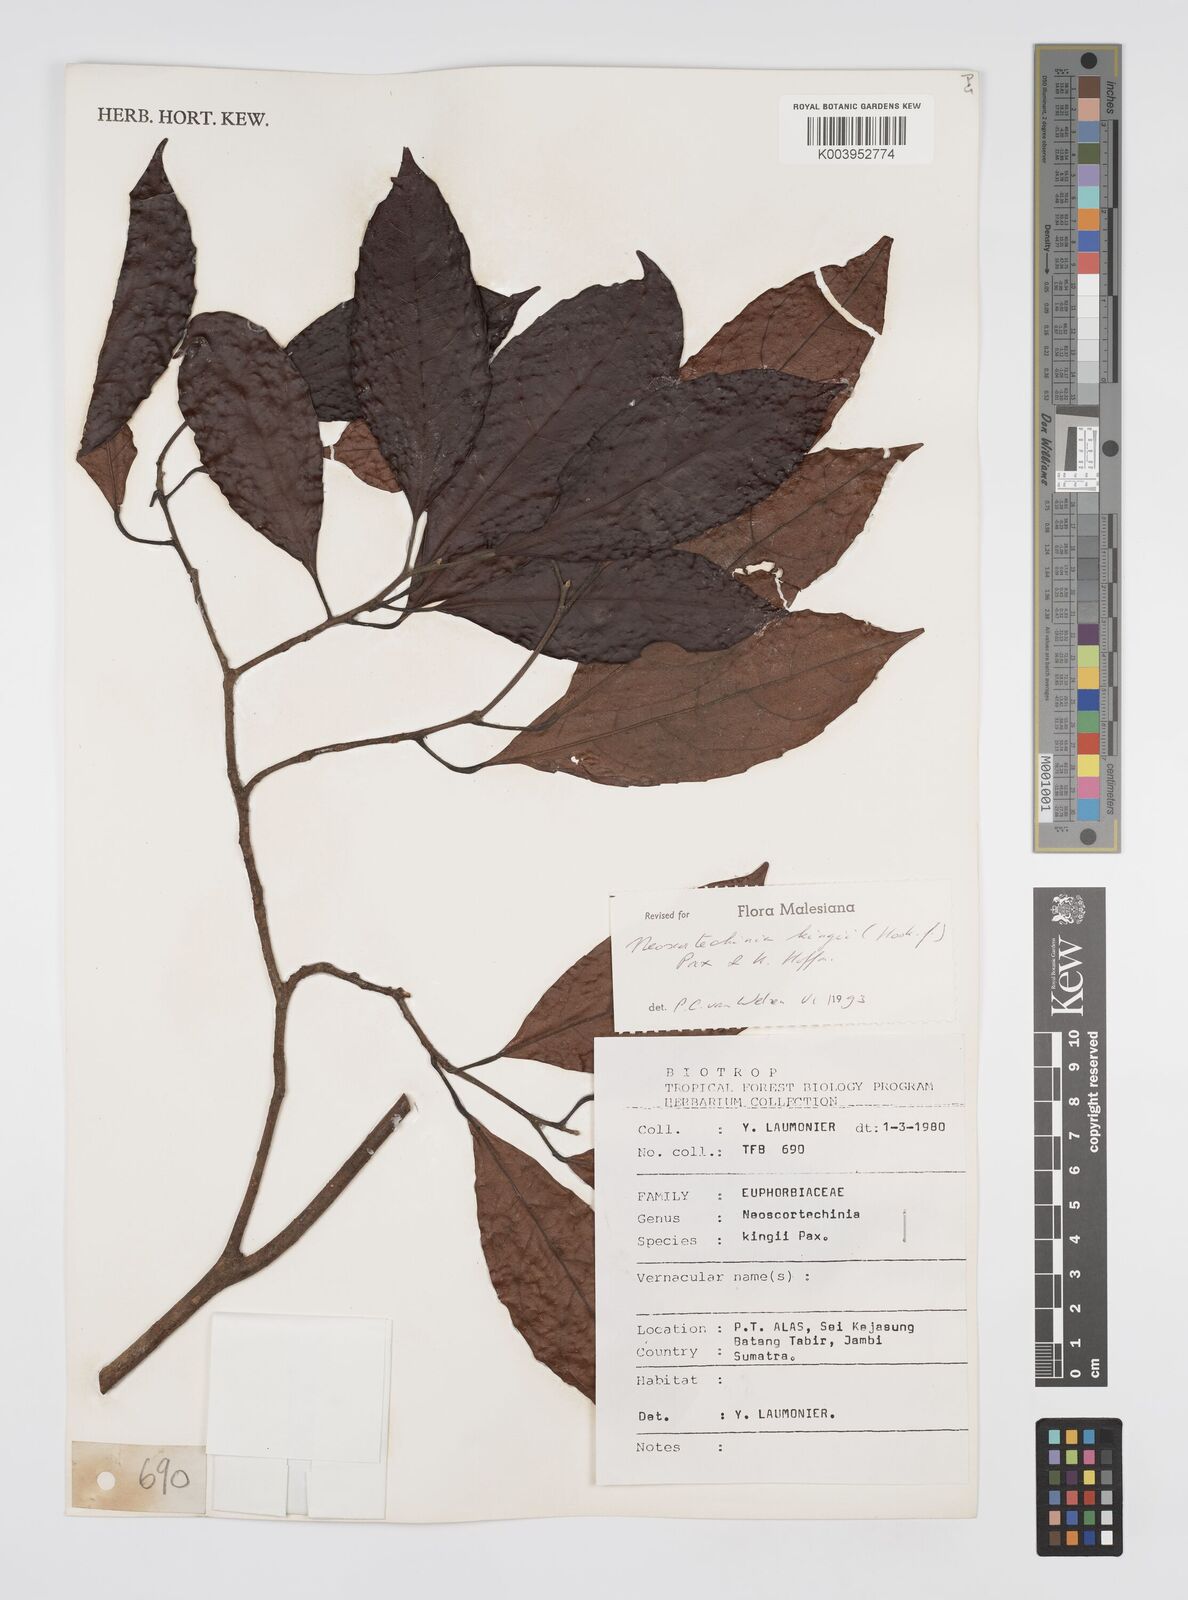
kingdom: Plantae
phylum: Tracheophyta
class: Magnoliopsida
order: Malpighiales
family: Euphorbiaceae
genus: Neoscortechinia
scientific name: Neoscortechinia kingii
